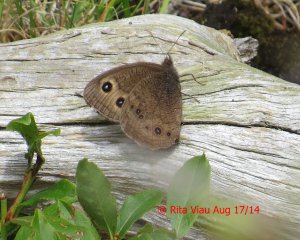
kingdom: Animalia
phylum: Arthropoda
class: Insecta
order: Lepidoptera
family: Nymphalidae
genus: Cercyonis
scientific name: Cercyonis pegala
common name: Common Wood-Nymph
